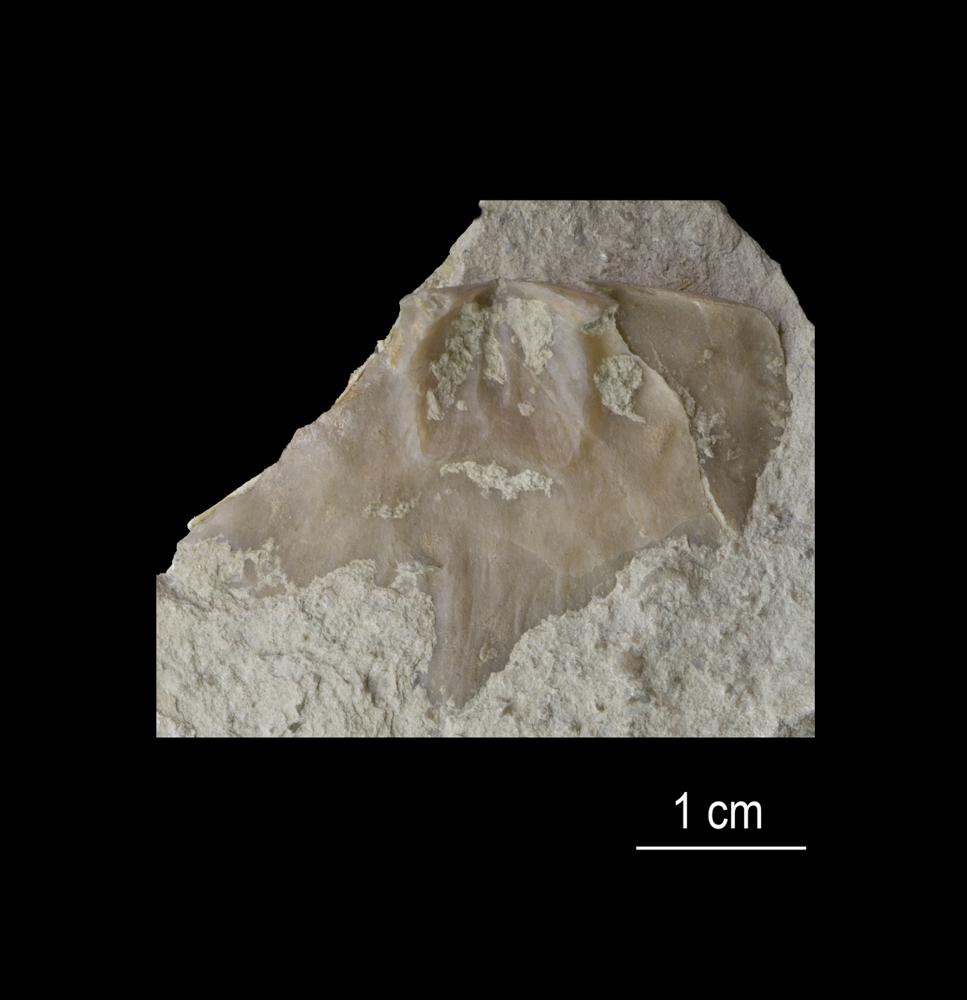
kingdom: Animalia
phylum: Brachiopoda
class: Rhynchonellata
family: Plaesiomyidae
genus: Plaesiomys
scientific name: Plaesiomys Orthis solaris
